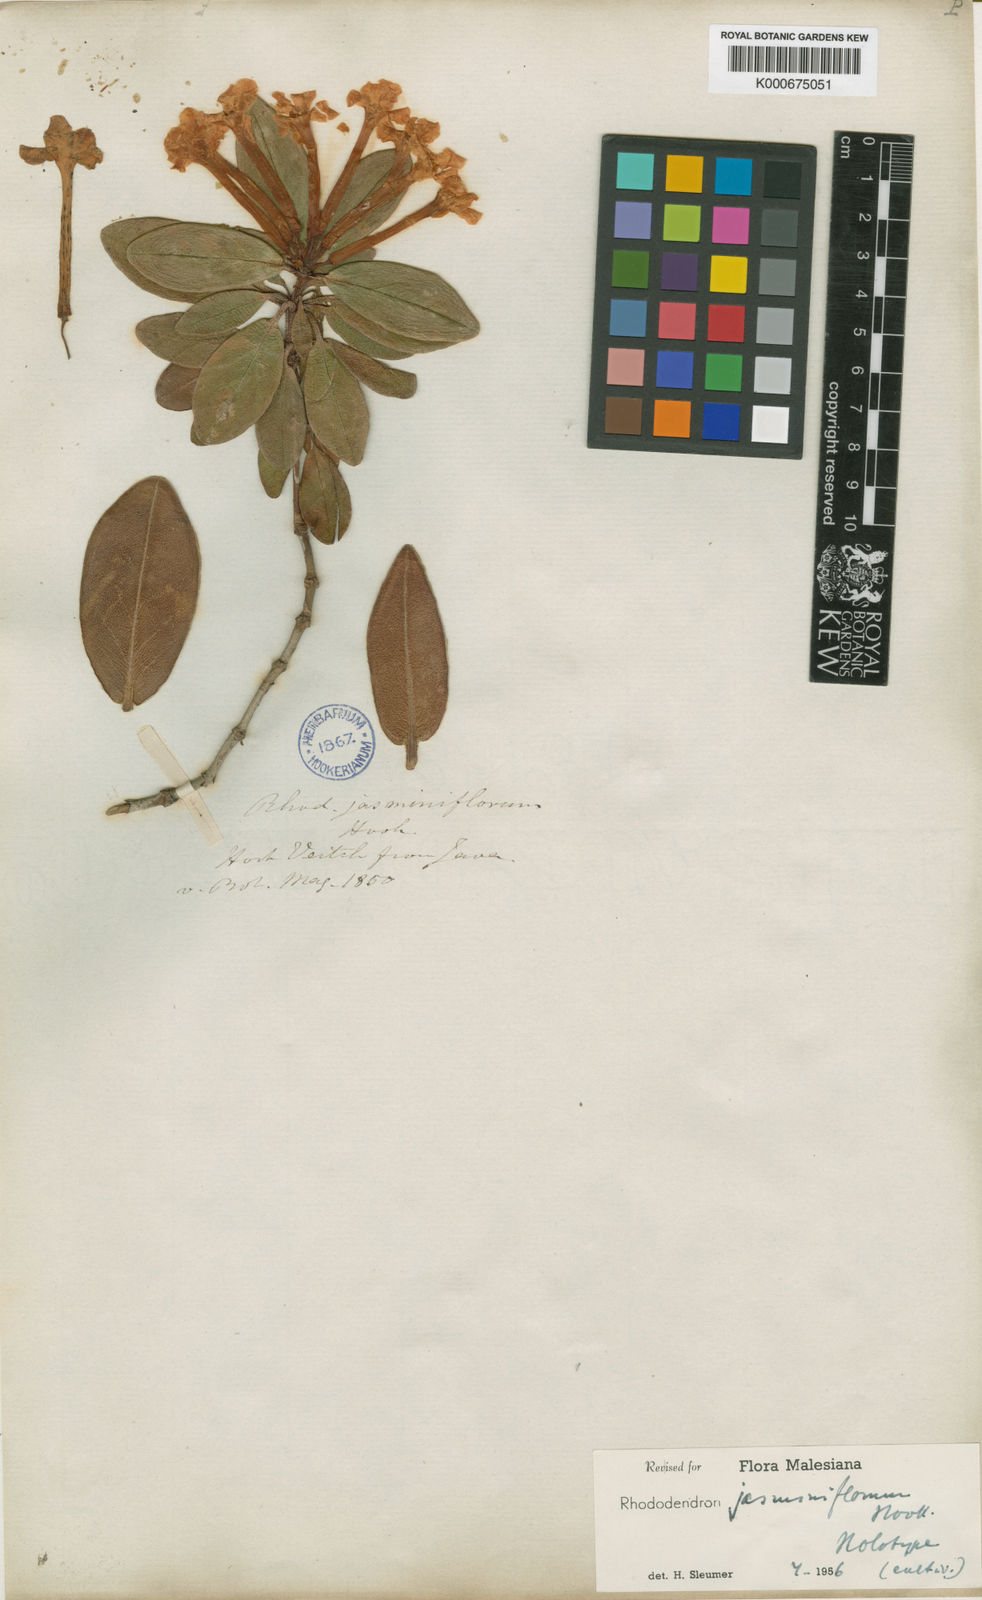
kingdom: Plantae
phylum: Tracheophyta
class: Magnoliopsida
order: Ericales
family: Ericaceae
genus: Rhododendron
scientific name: Rhododendron jasminiflorum
